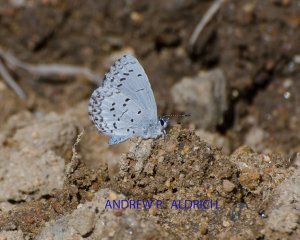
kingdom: Animalia
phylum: Arthropoda
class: Insecta
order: Lepidoptera
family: Lycaenidae
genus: Celastrina
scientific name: Celastrina ladon
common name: Spring Azure
